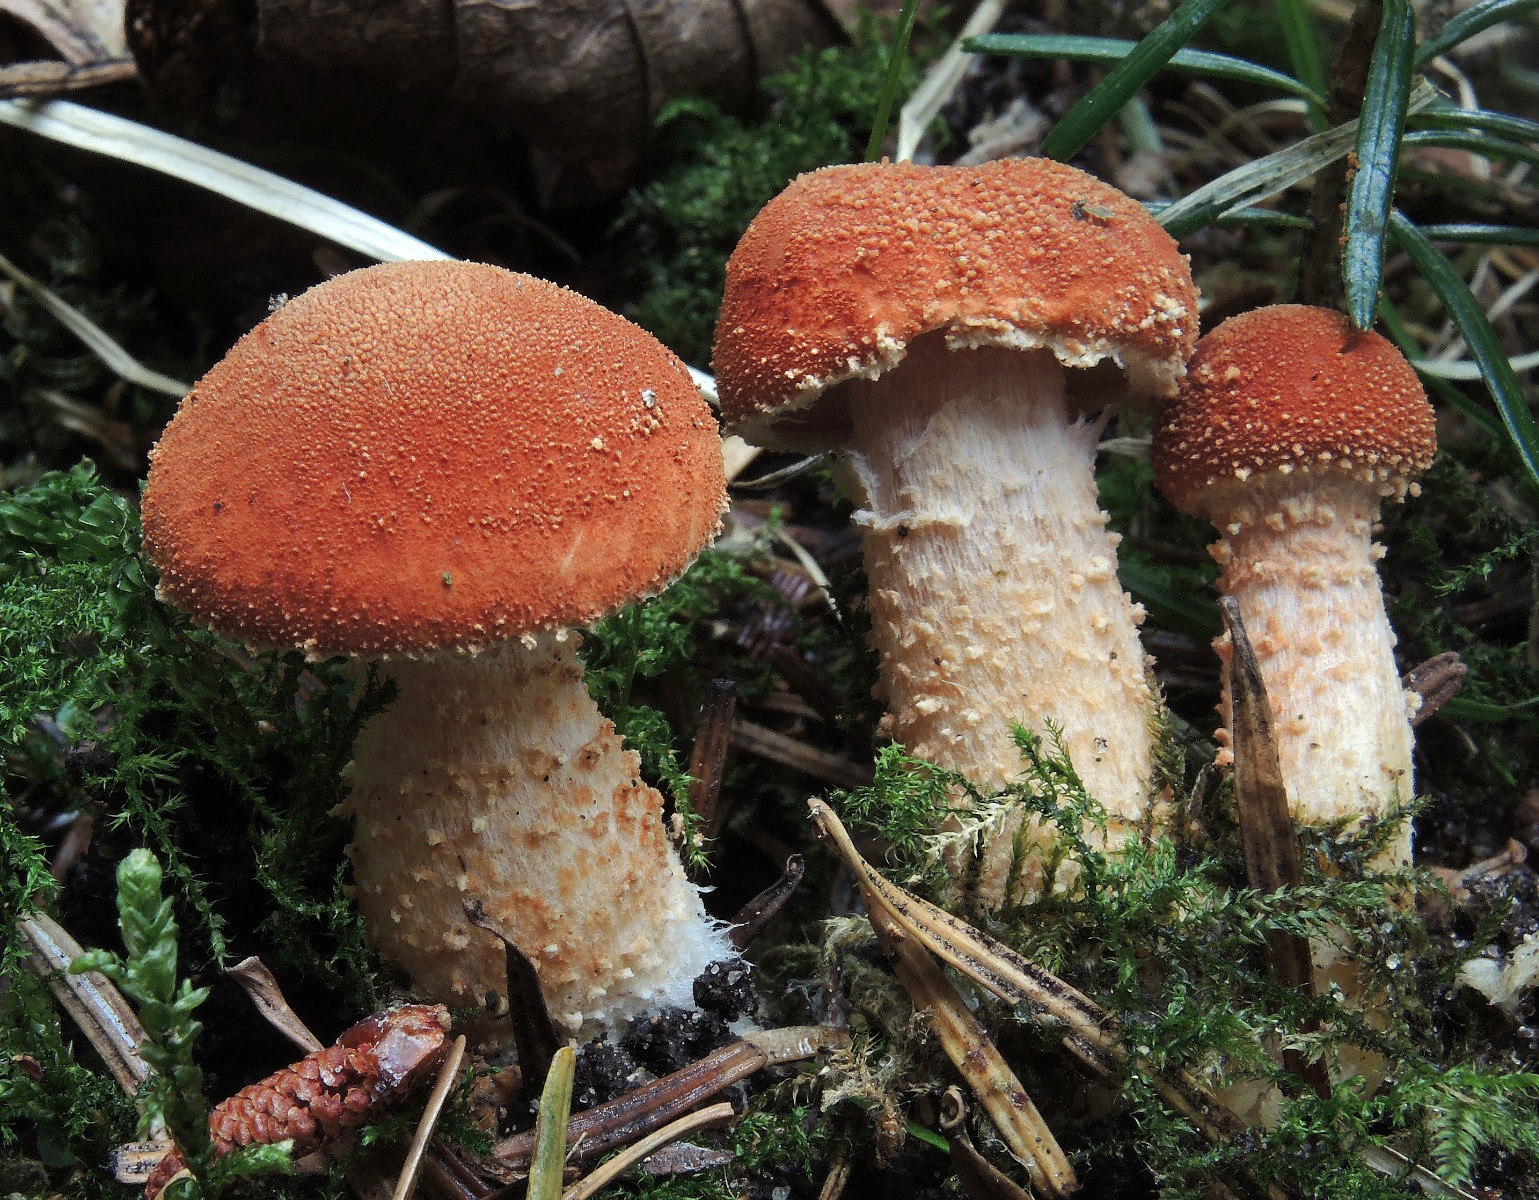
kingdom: Fungi
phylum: Basidiomycota
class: Agaricomycetes
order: Agaricales
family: Agaricaceae
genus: Cystodermella
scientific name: Cystodermella cinnabarina
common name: cinnober-grynhat
